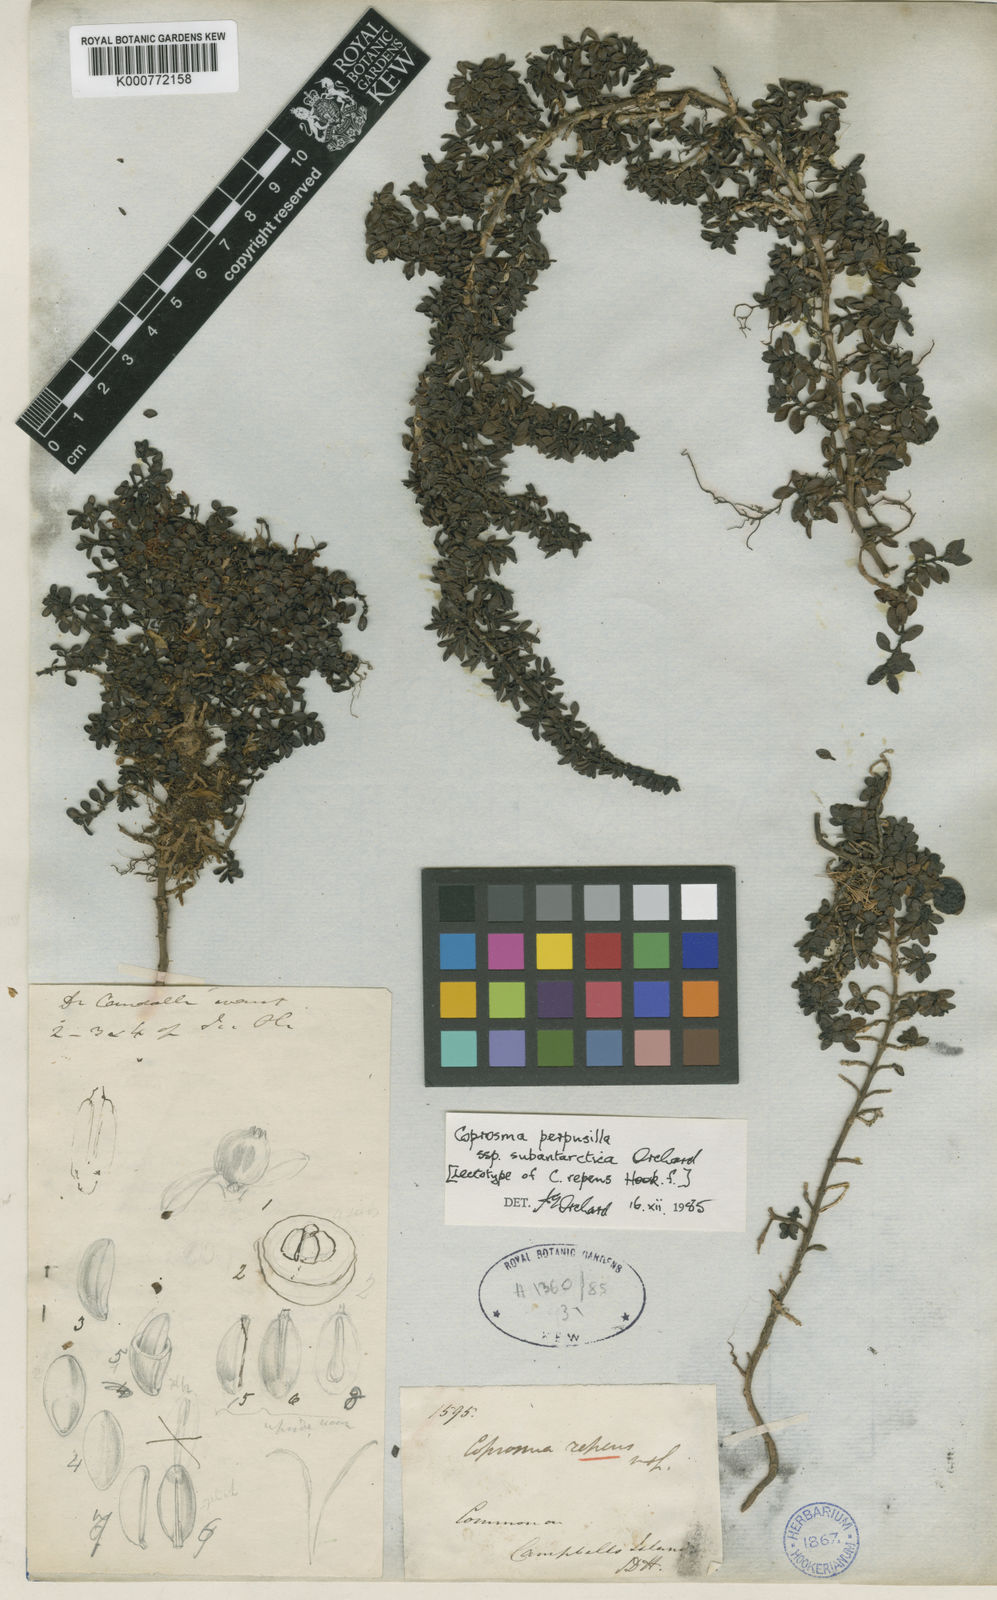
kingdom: Plantae
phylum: Tracheophyta
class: Magnoliopsida
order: Gentianales
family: Rubiaceae
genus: Coprosma
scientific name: Coprosma perpusilla
